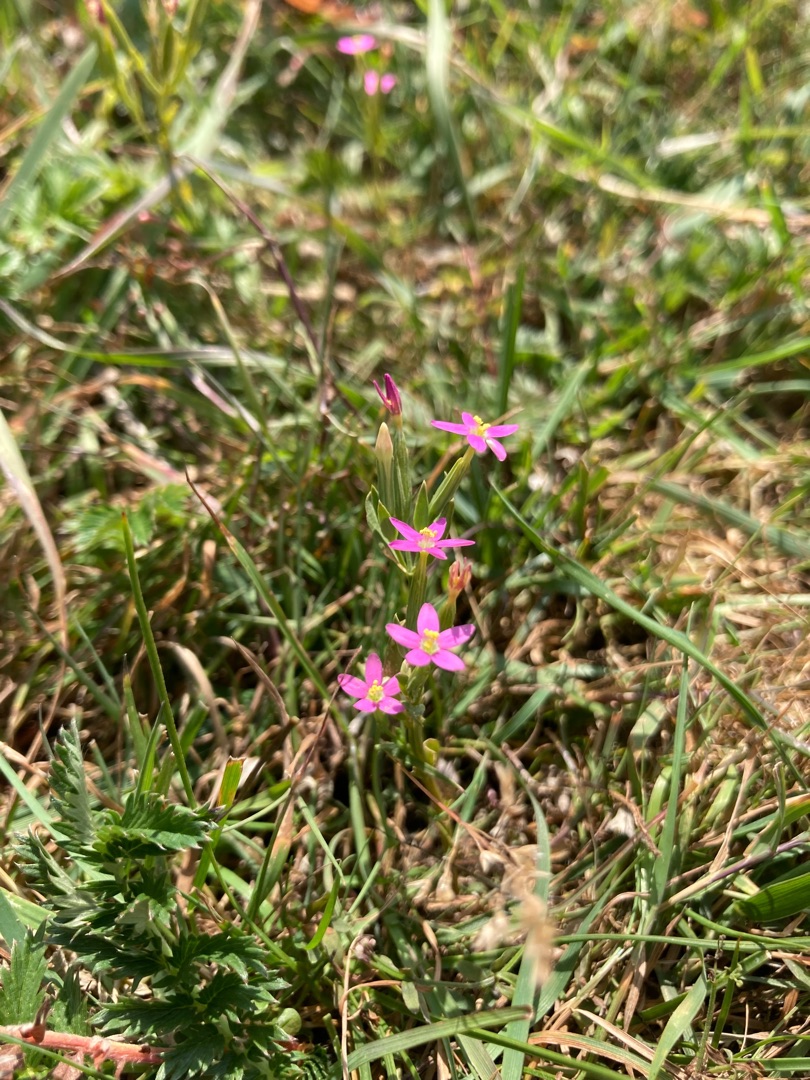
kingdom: Plantae
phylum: Tracheophyta
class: Magnoliopsida
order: Gentianales
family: Gentianaceae
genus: Centaurium
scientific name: Centaurium pulchellum
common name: Liden tusindgylden
